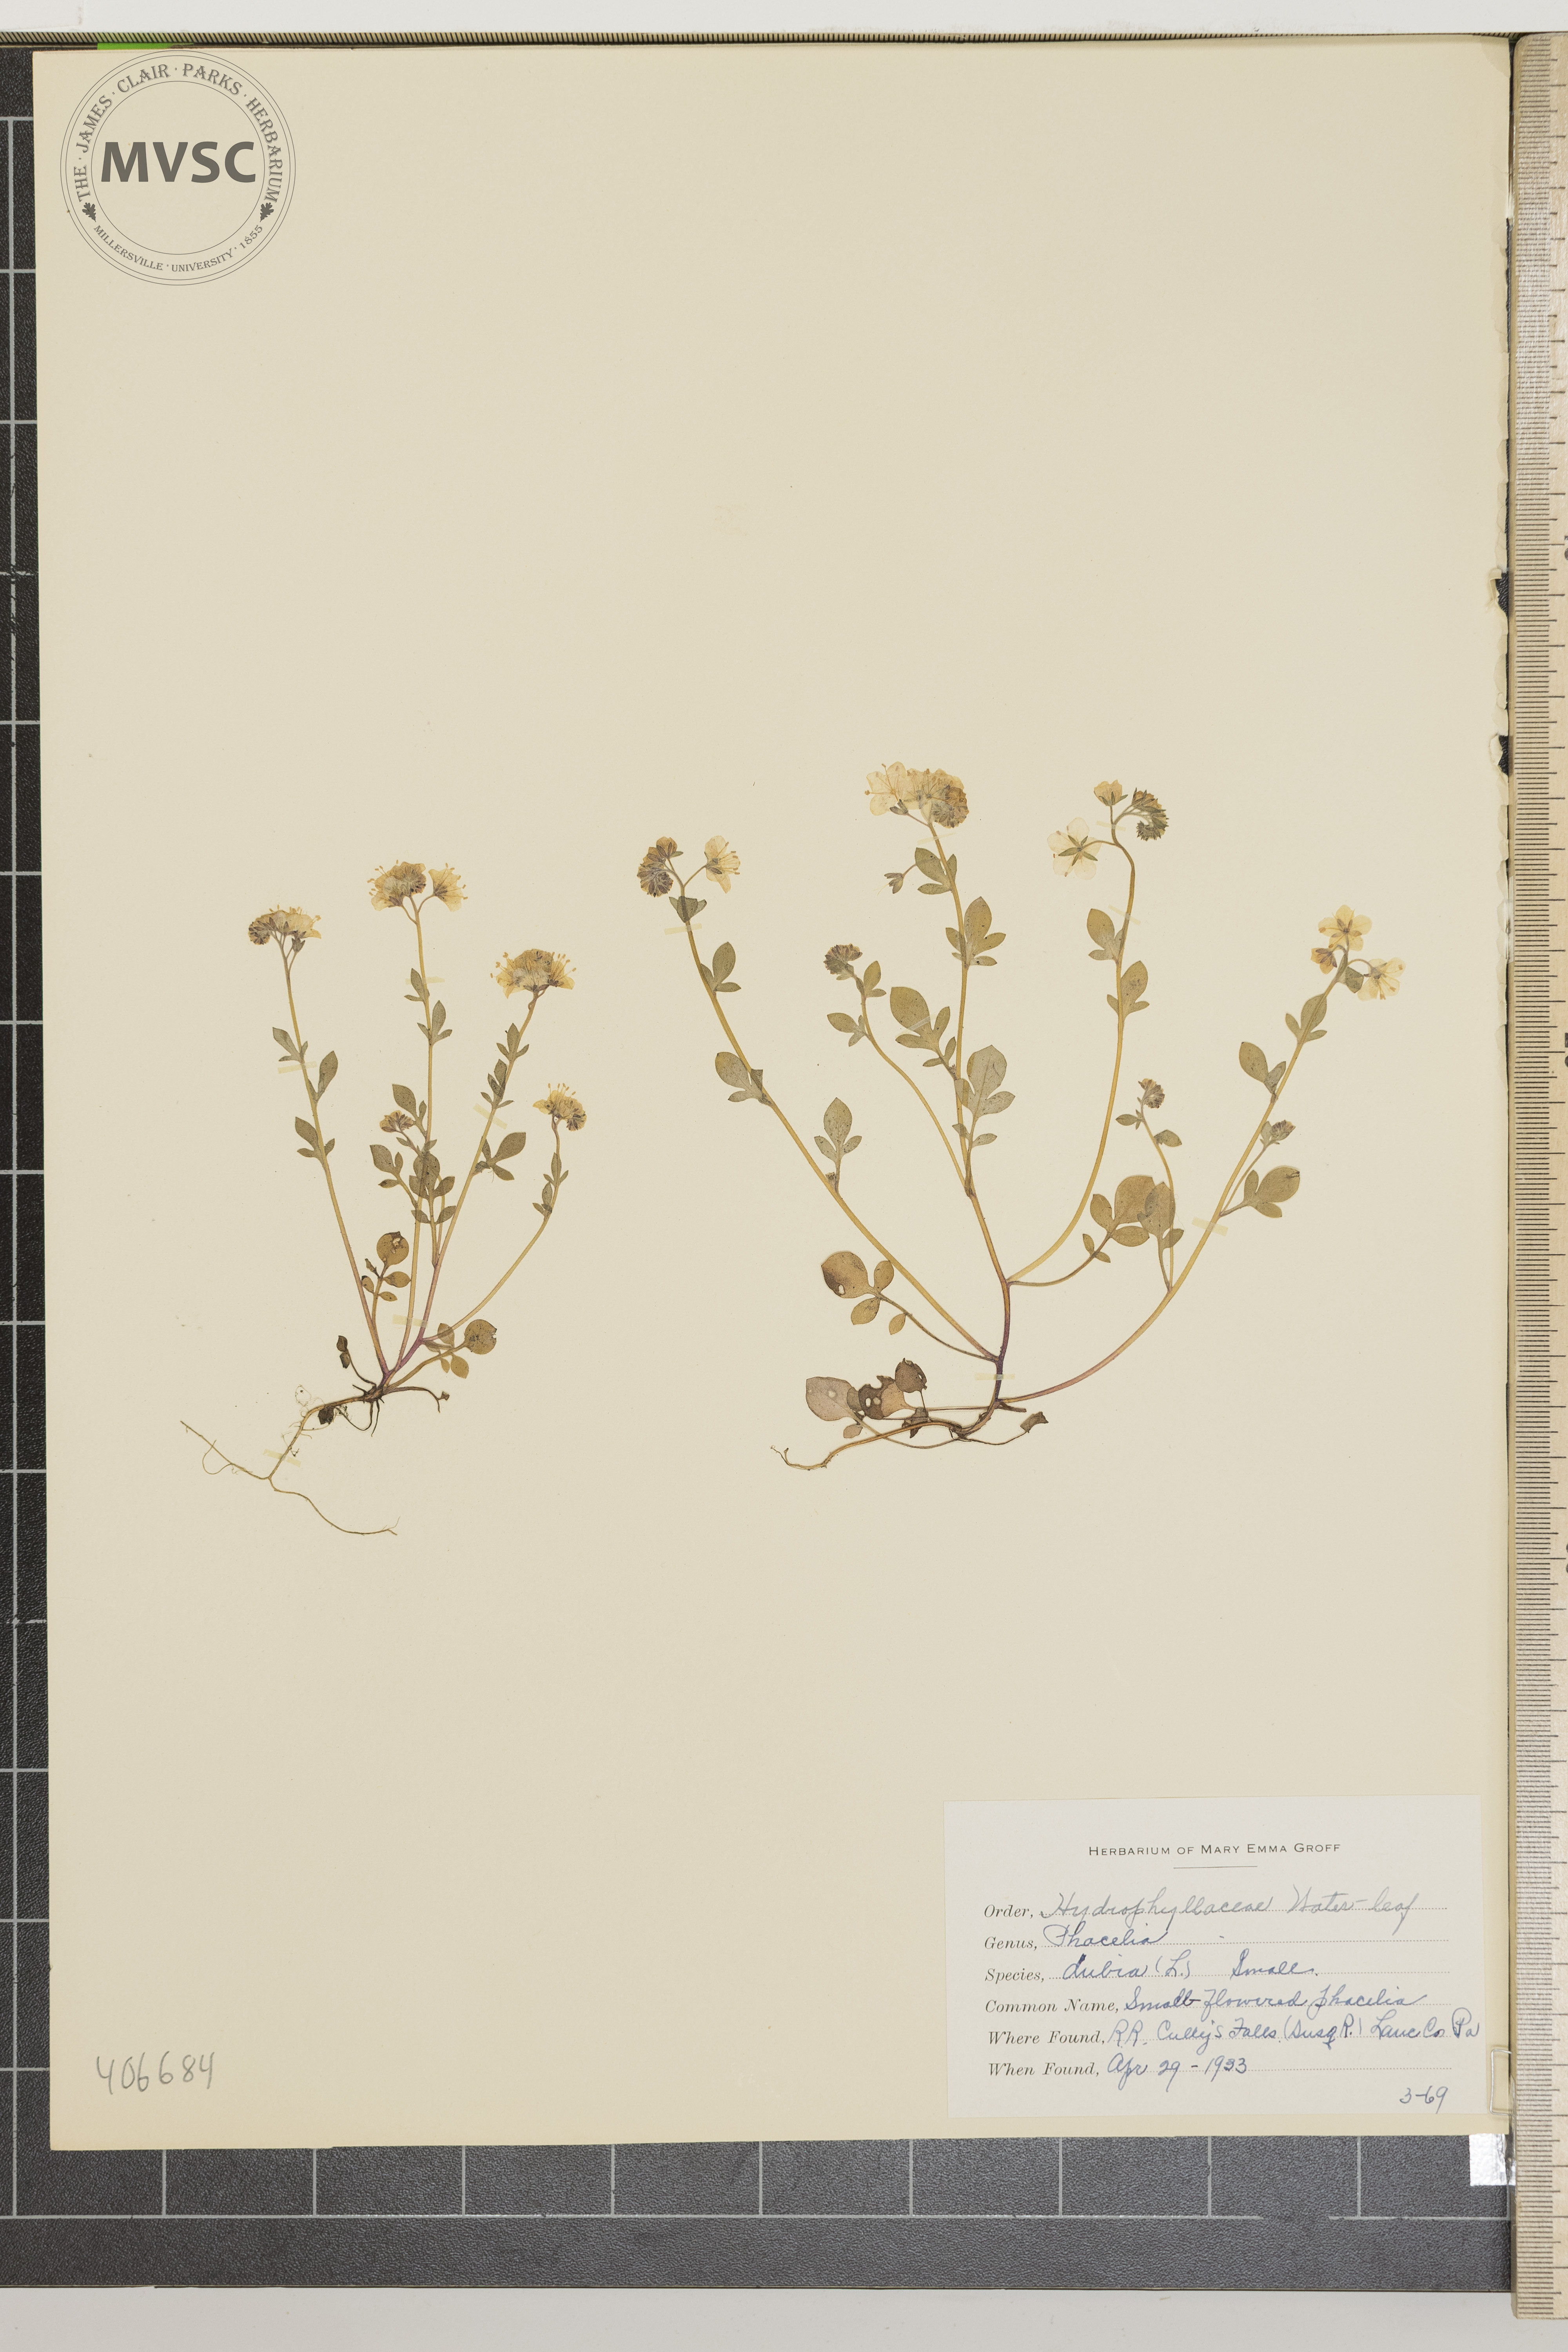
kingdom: Plantae
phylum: Tracheophyta
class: Magnoliopsida
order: Boraginales
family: Hydrophyllaceae
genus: Phacelia
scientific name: Phacelia dubia
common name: Small-flowered phacelia
